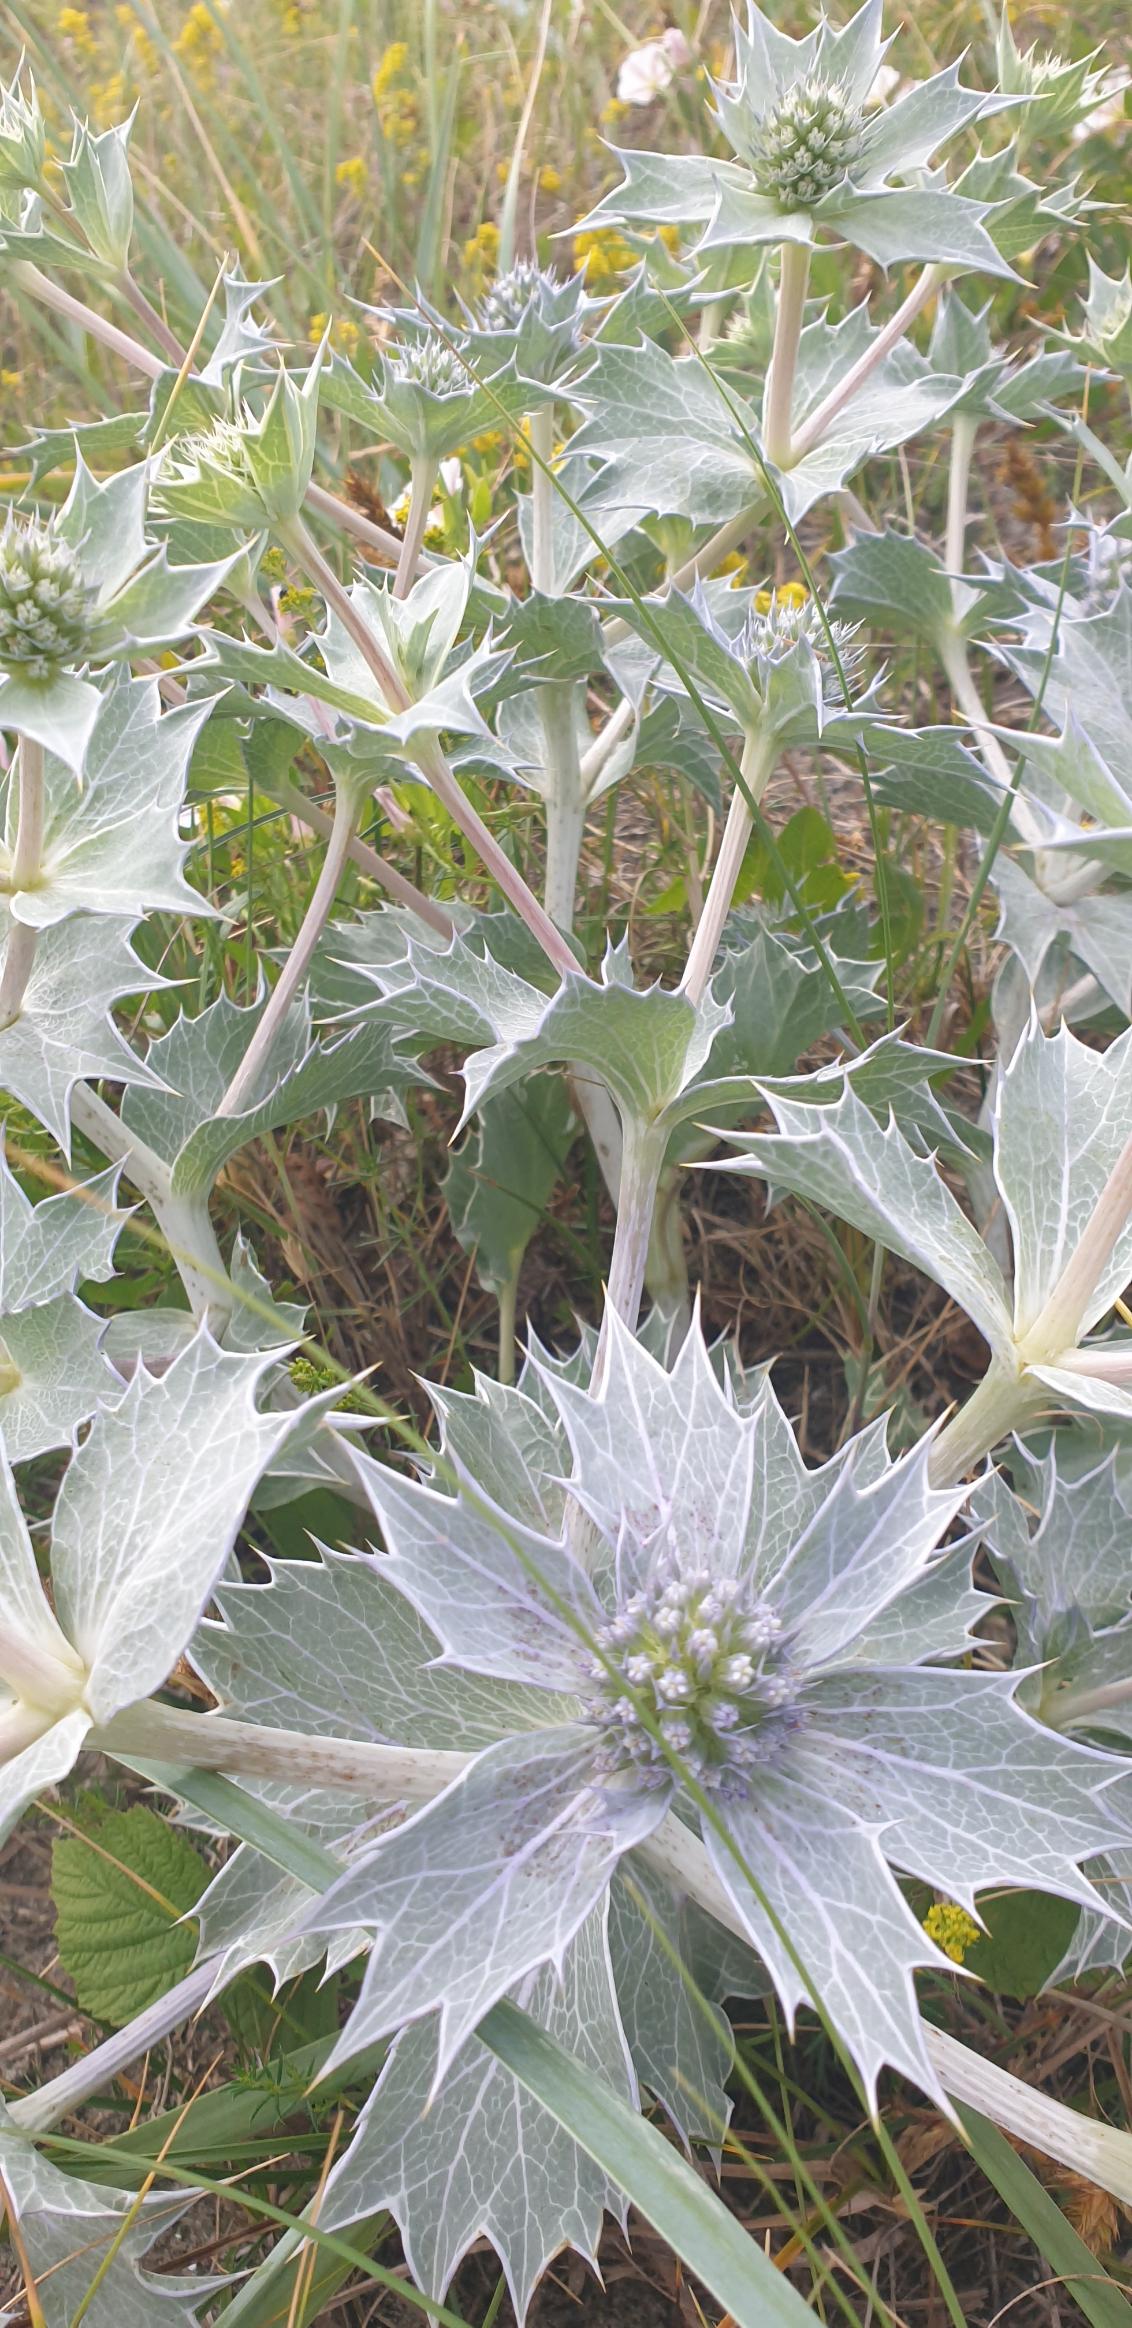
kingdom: Plantae
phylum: Tracheophyta
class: Magnoliopsida
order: Apiales
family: Apiaceae
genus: Eryngium
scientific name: Eryngium maritimum
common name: Strand-mandstro
